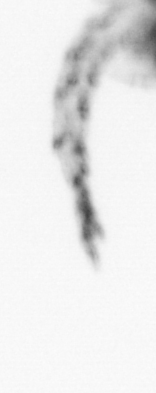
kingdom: Chromista
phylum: Ochrophyta
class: Bacillariophyceae
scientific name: Bacillariophyceae
